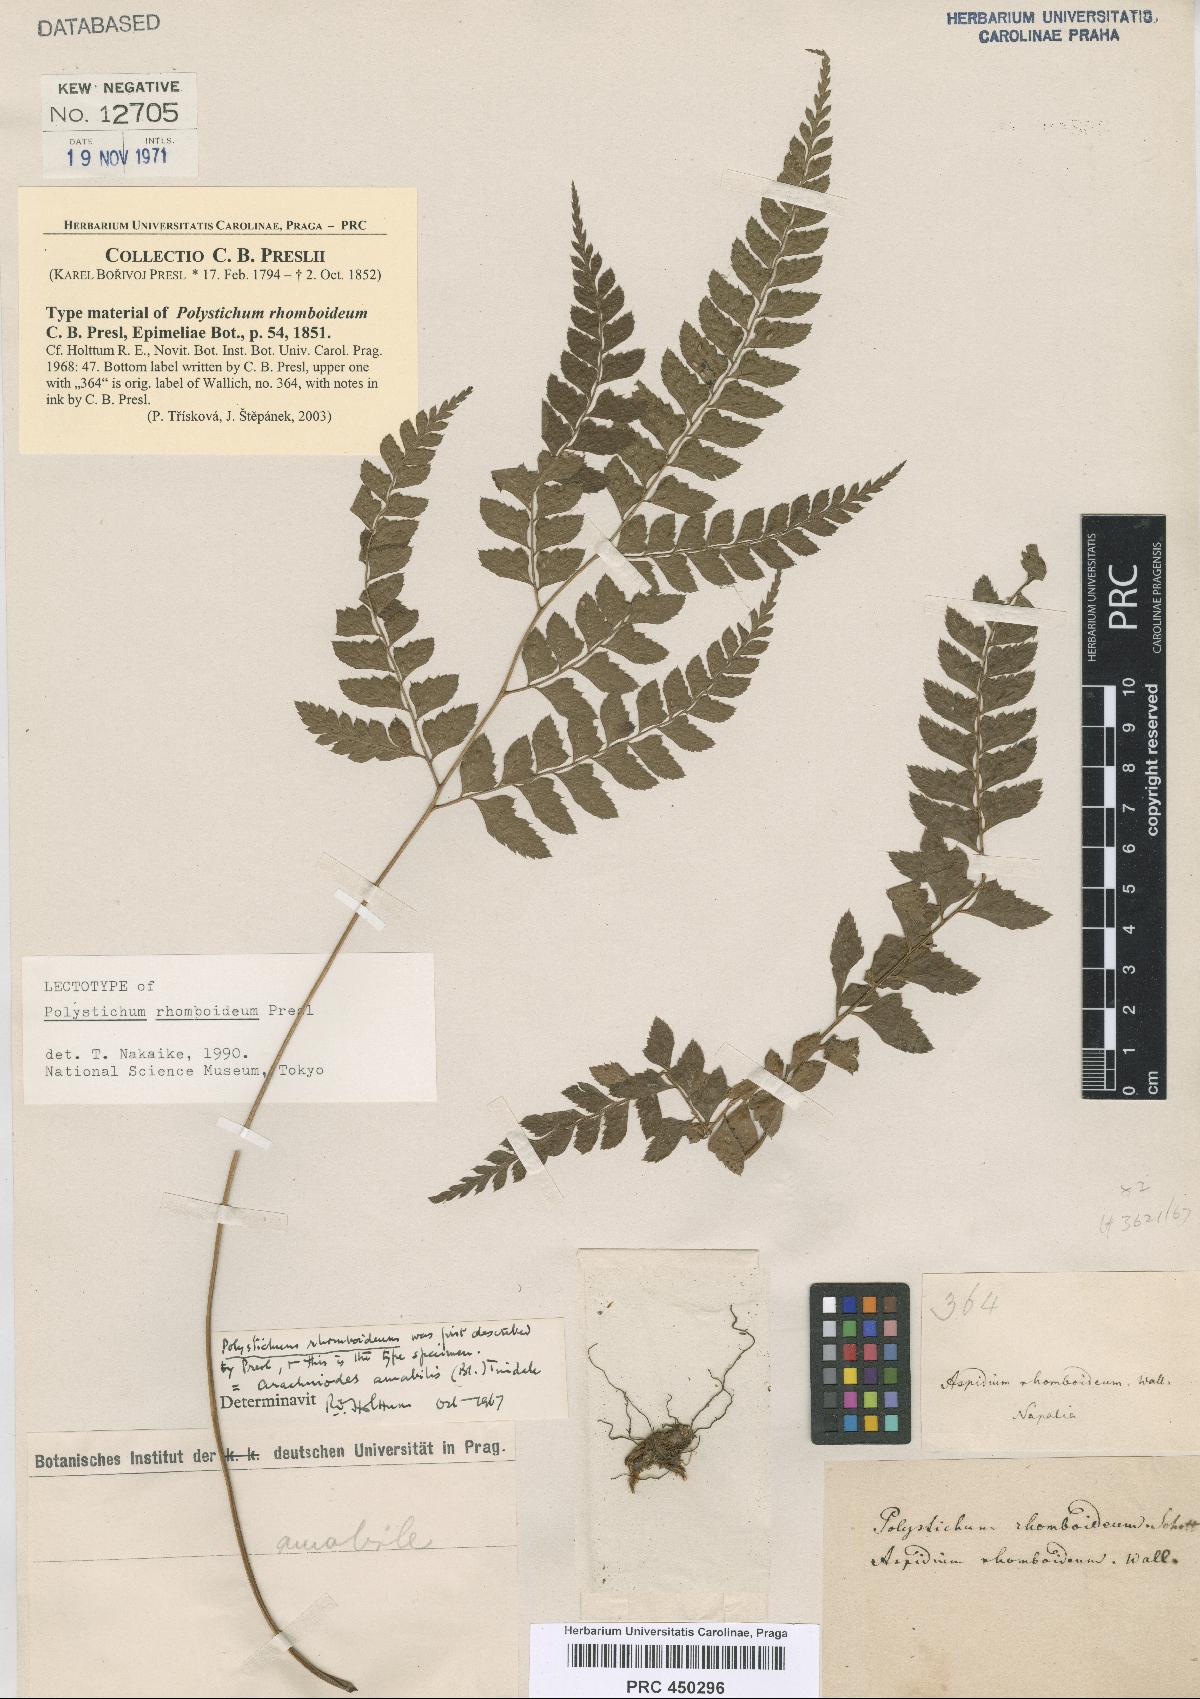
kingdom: Plantae
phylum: Tracheophyta
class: Polypodiopsida
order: Polypodiales
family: Dryopteridaceae
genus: Arachniodes
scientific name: Arachniodes rhomboidea
